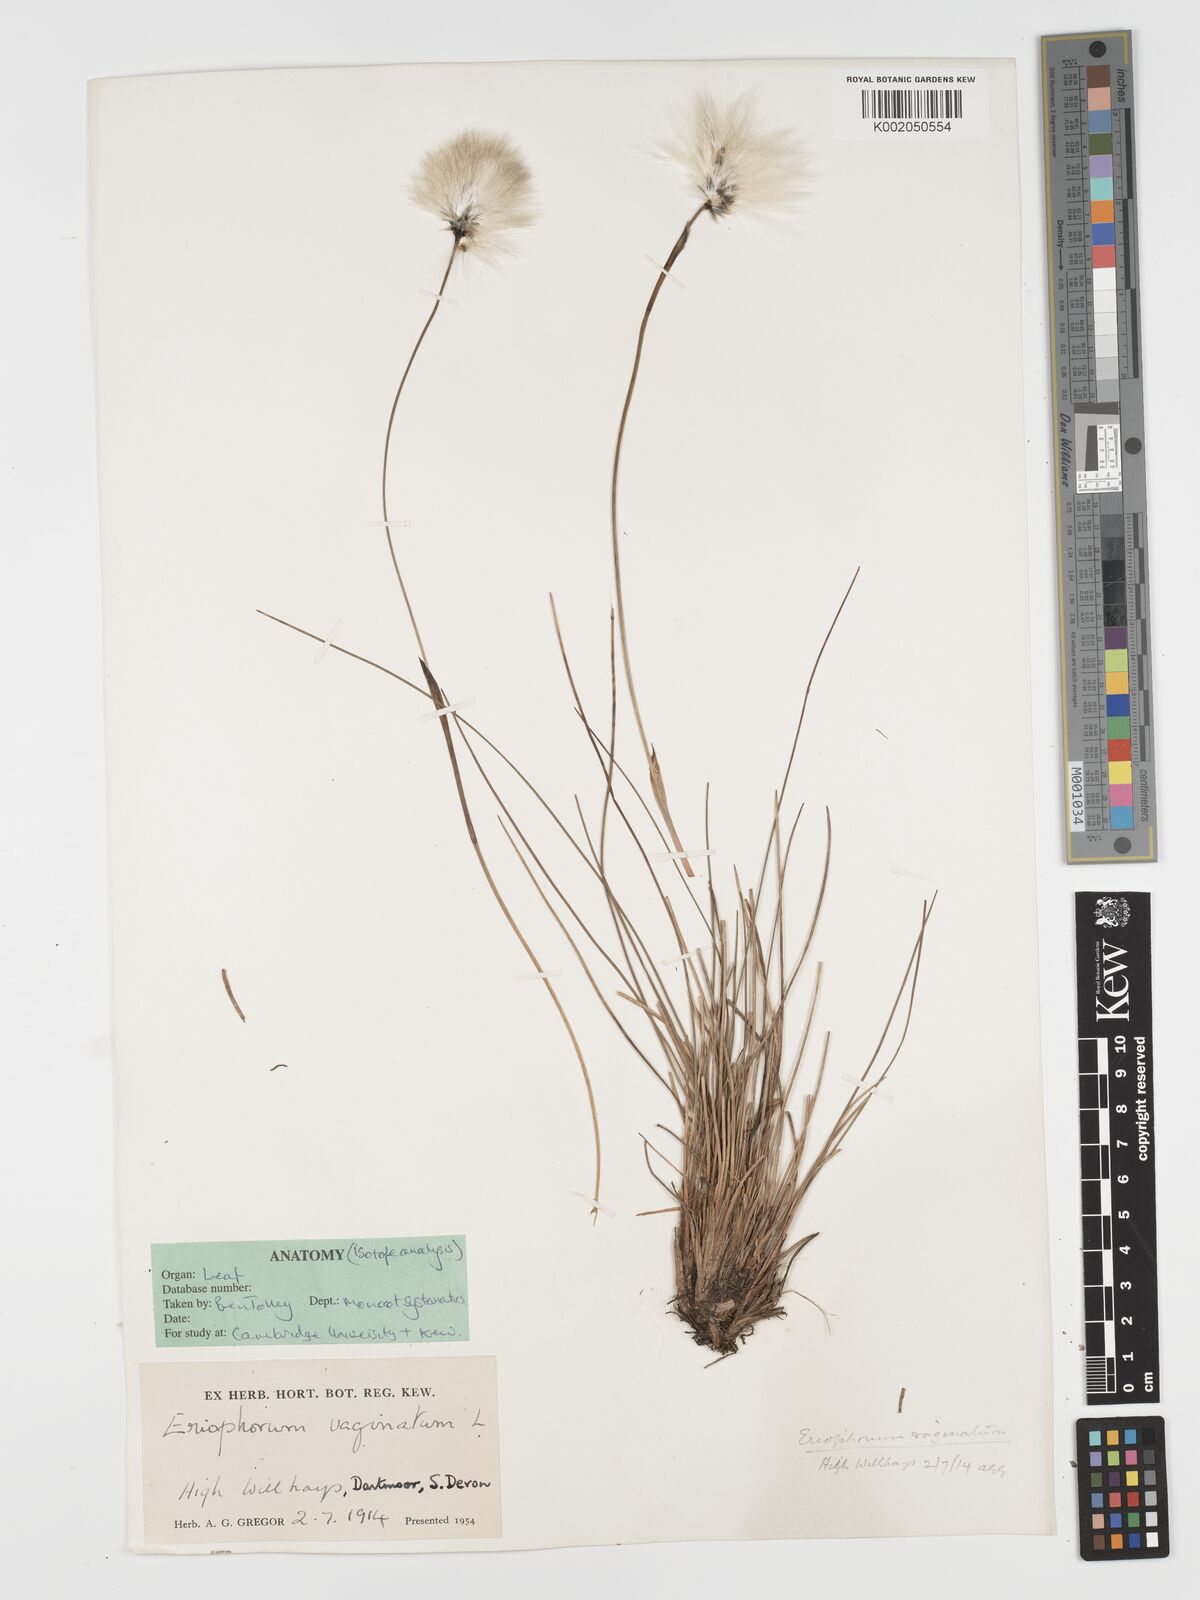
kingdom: Plantae
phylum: Tracheophyta
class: Liliopsida
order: Poales
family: Cyperaceae
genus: Eriophorum
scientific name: Eriophorum vaginatum
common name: Hare's-tail cottongrass
